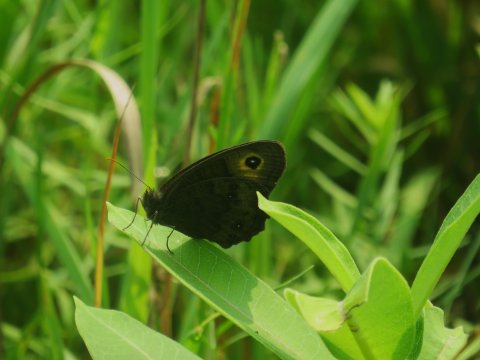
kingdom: Animalia
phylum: Arthropoda
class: Insecta
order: Lepidoptera
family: Nymphalidae
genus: Cercyonis
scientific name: Cercyonis pegala
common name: Common Wood-Nymph
